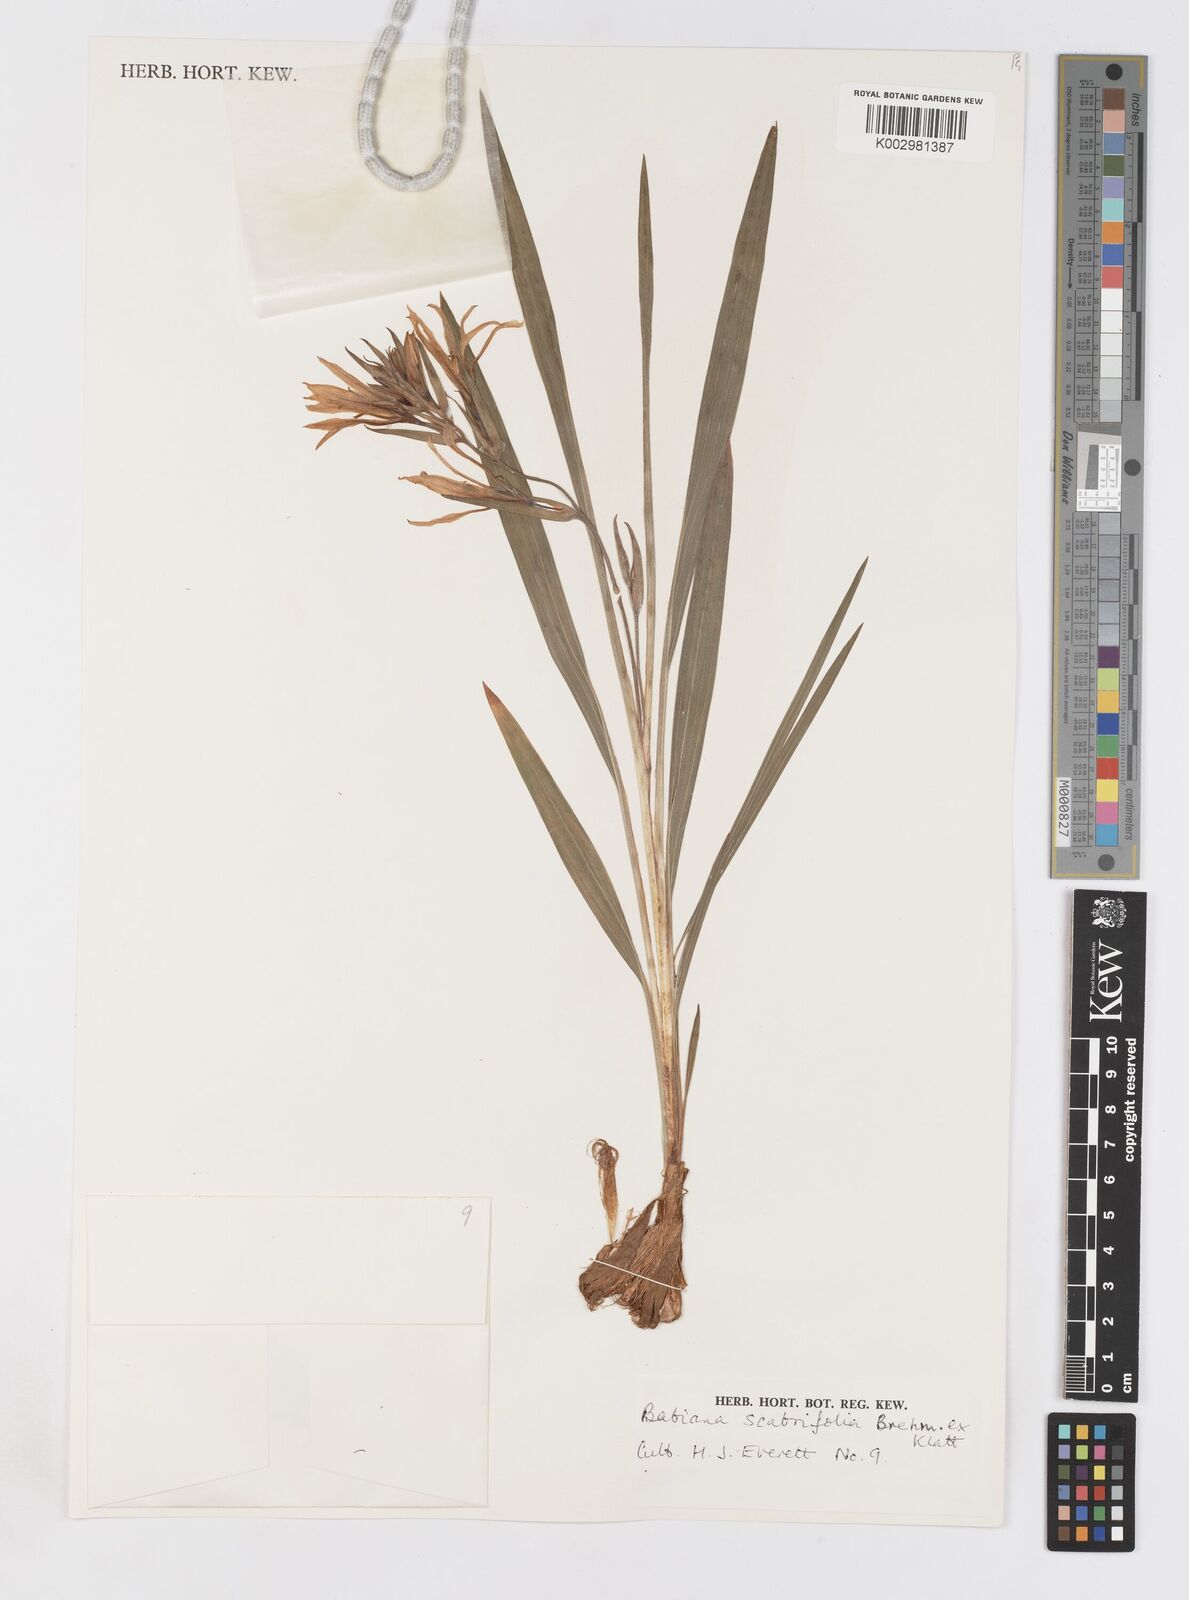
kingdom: Plantae
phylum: Tracheophyta
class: Liliopsida
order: Asparagales
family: Iridaceae
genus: Babiana
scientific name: Babiana scabrifolia
